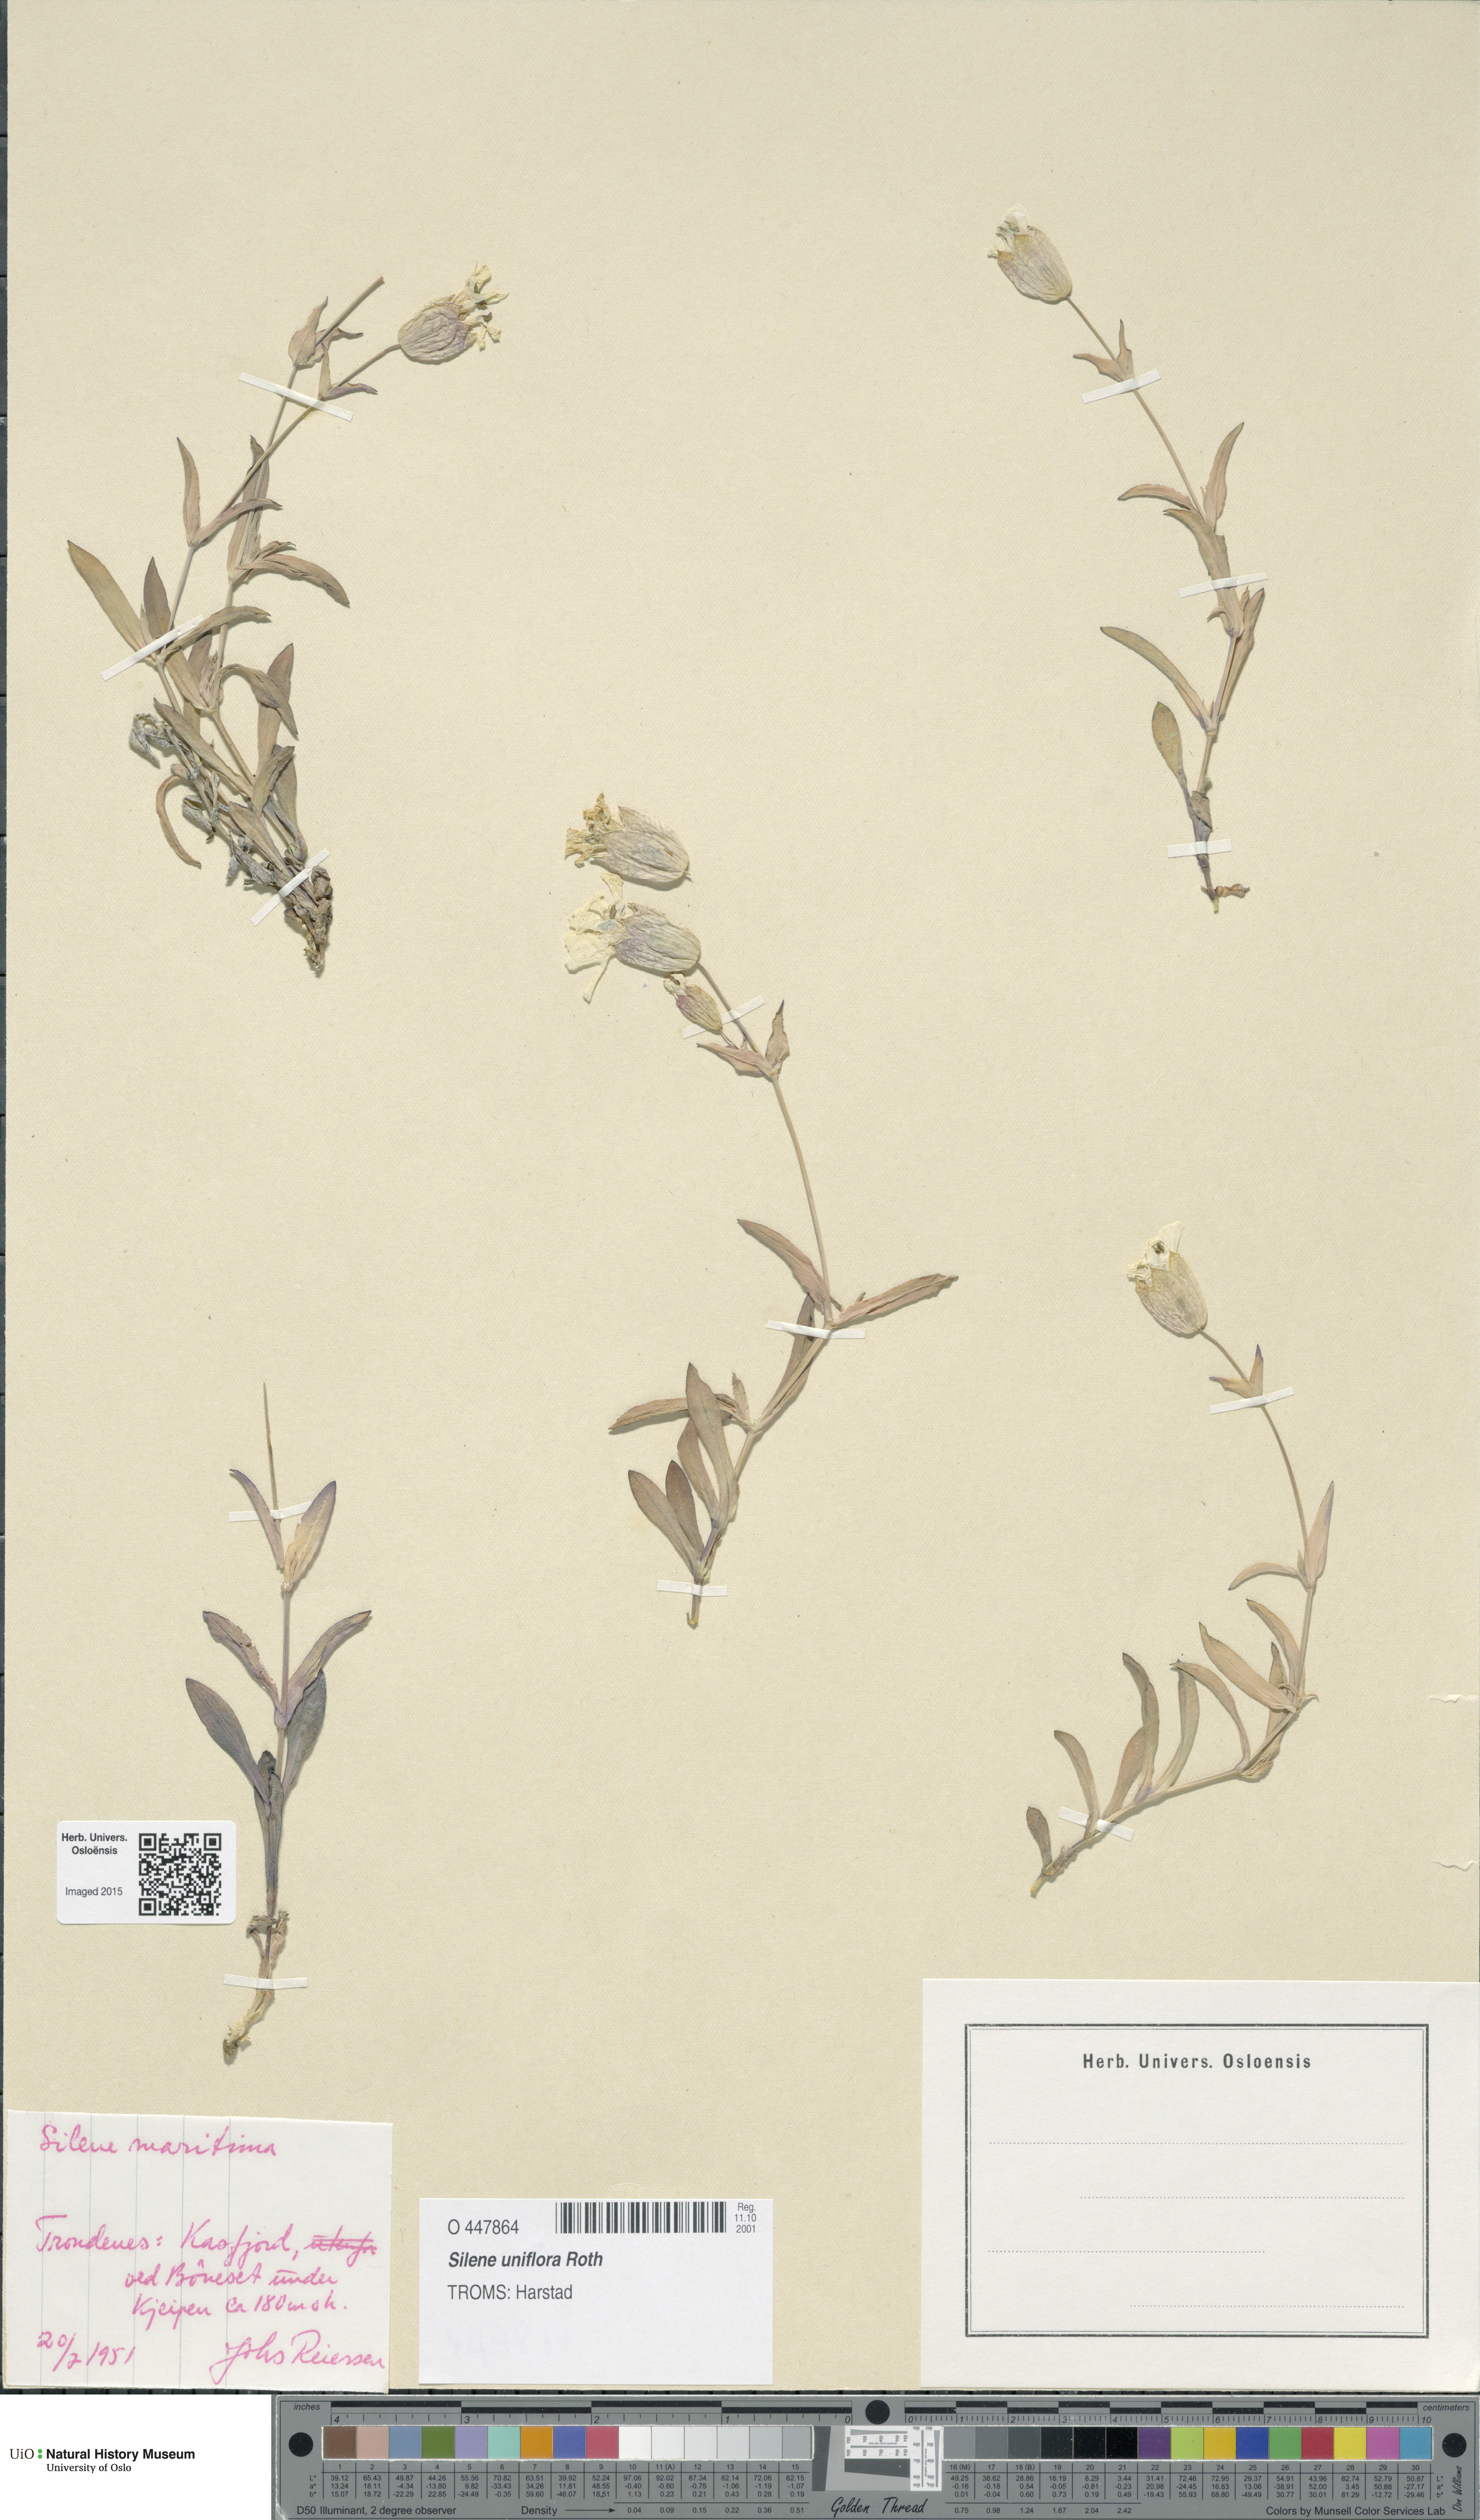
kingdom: Plantae
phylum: Tracheophyta
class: Magnoliopsida
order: Caryophyllales
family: Caryophyllaceae
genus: Silene
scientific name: Silene uniflora
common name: Sea campion
